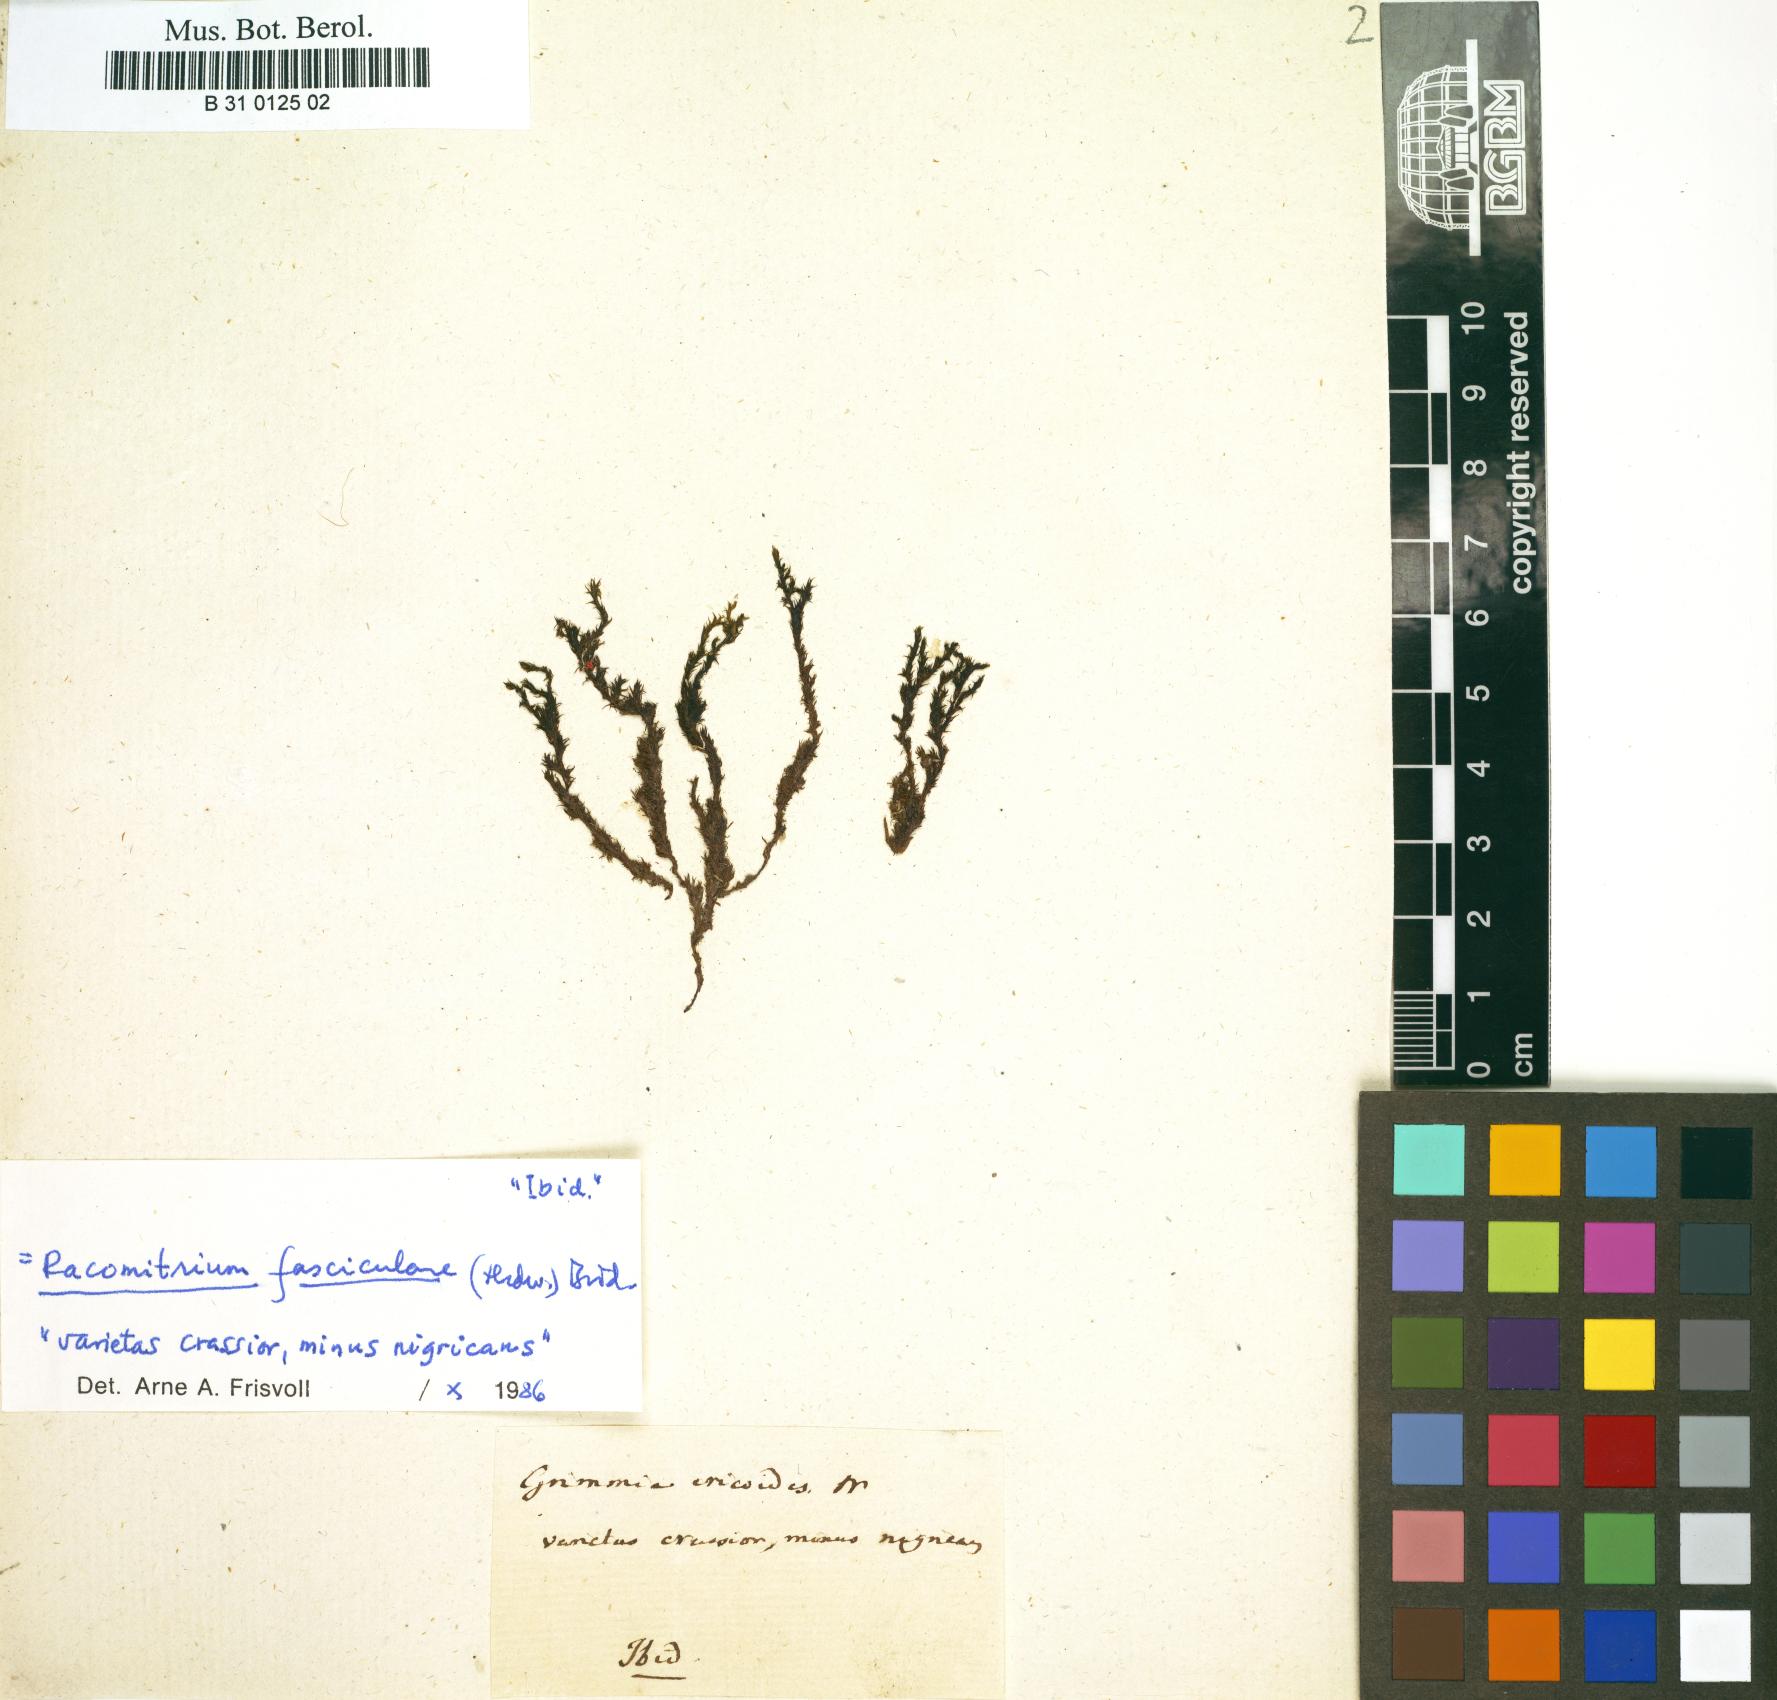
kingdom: Plantae
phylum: Bryophyta
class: Bryopsida
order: Grimmiales
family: Grimmiaceae
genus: Dilutineuron
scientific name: Dilutineuron fasciculare
